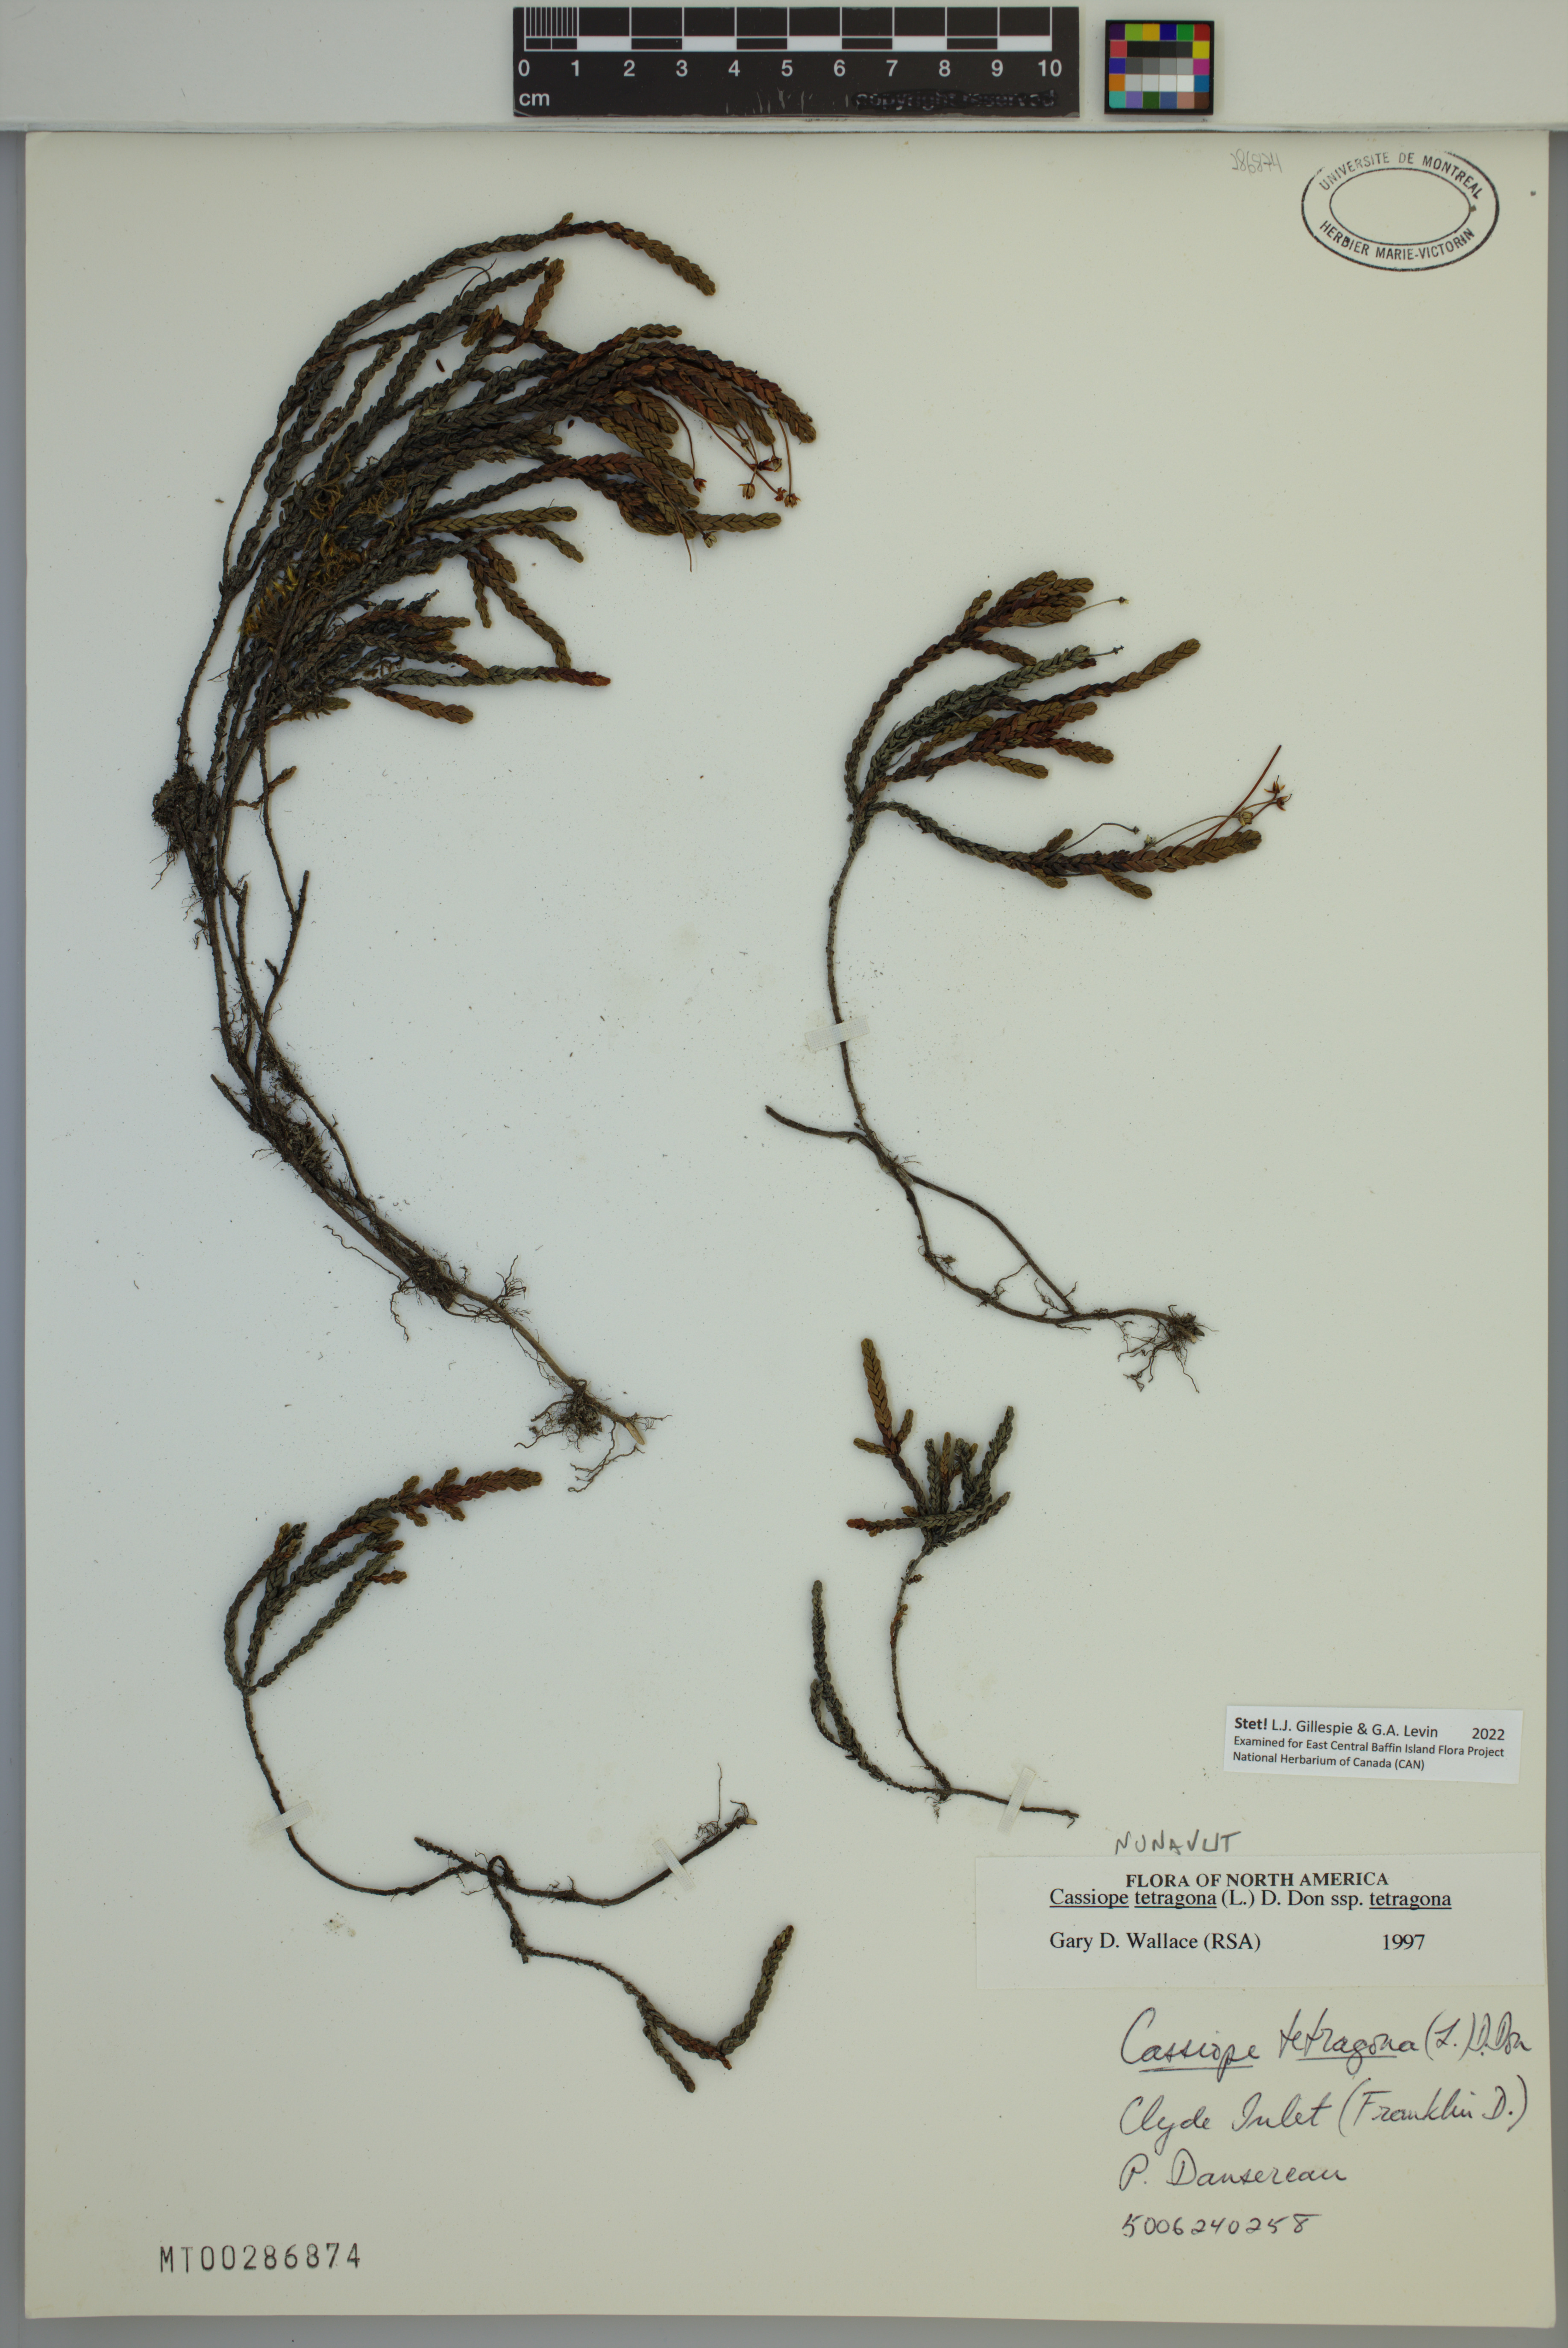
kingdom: Plantae
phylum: Tracheophyta
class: Magnoliopsida
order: Ericales
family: Ericaceae
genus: Cassiope
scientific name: Cassiope tetragona
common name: Arctic bell heather
